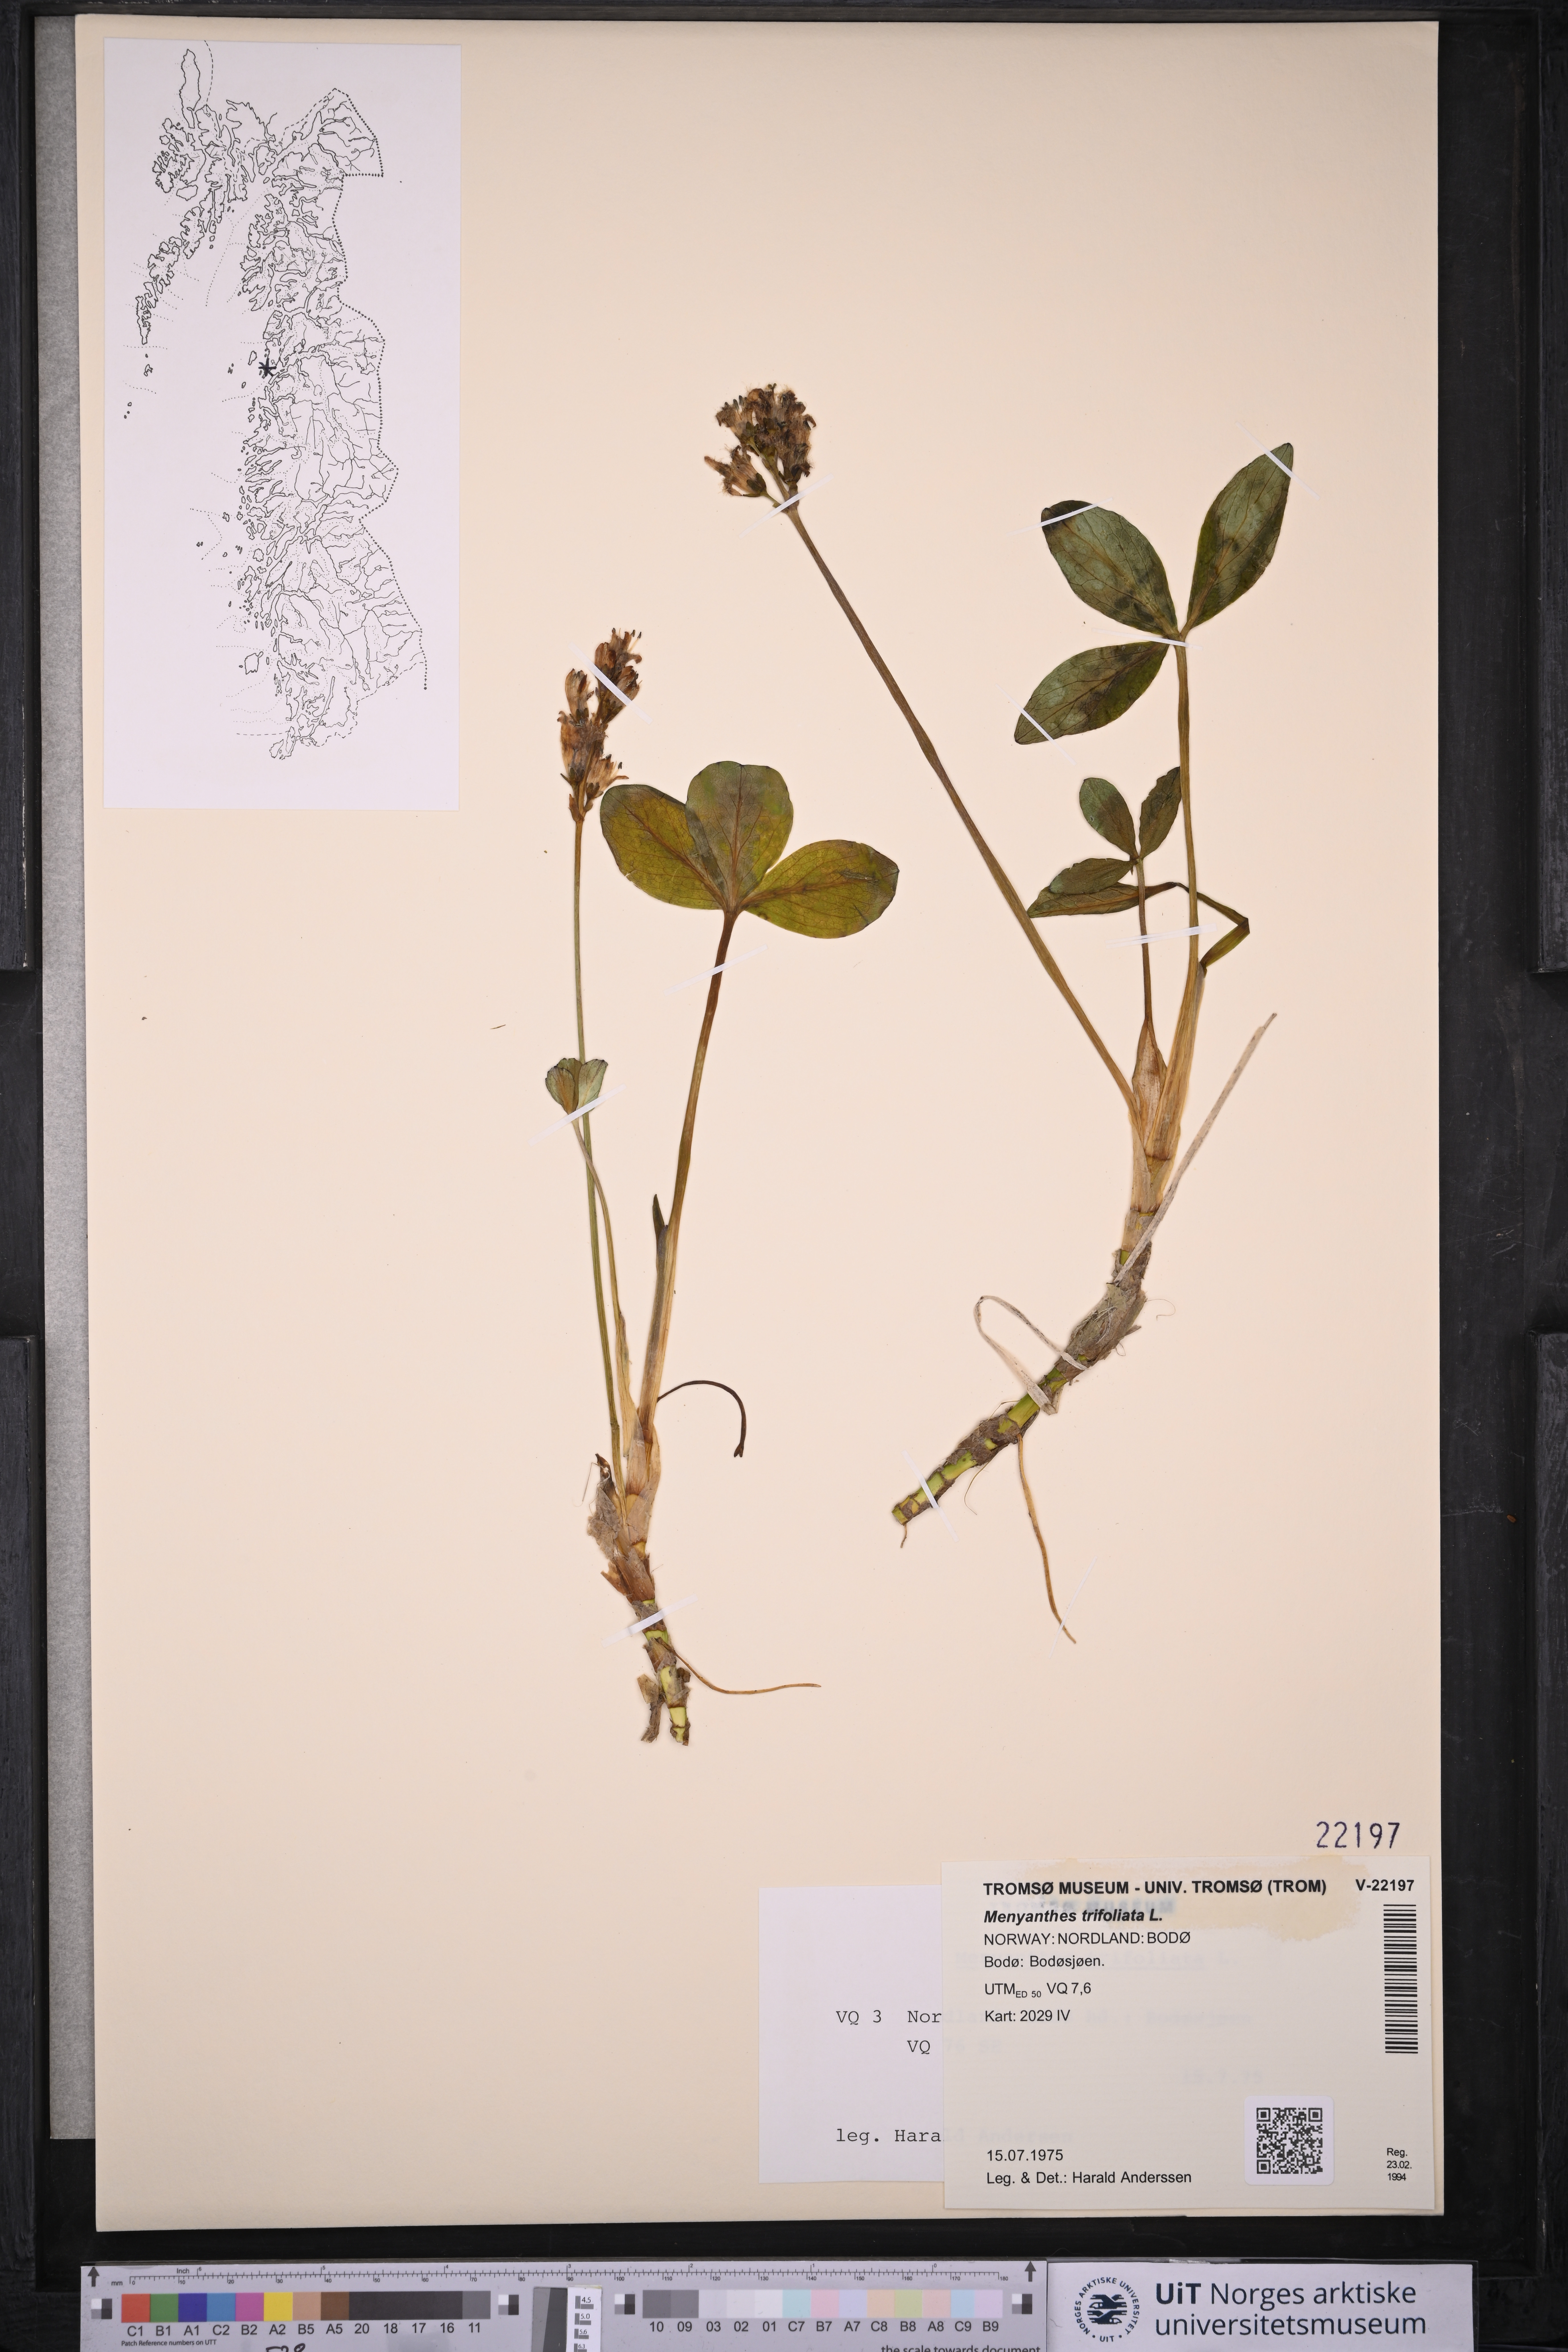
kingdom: Plantae
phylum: Tracheophyta
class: Magnoliopsida
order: Asterales
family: Menyanthaceae
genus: Menyanthes
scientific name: Menyanthes trifoliata
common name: Bogbean
